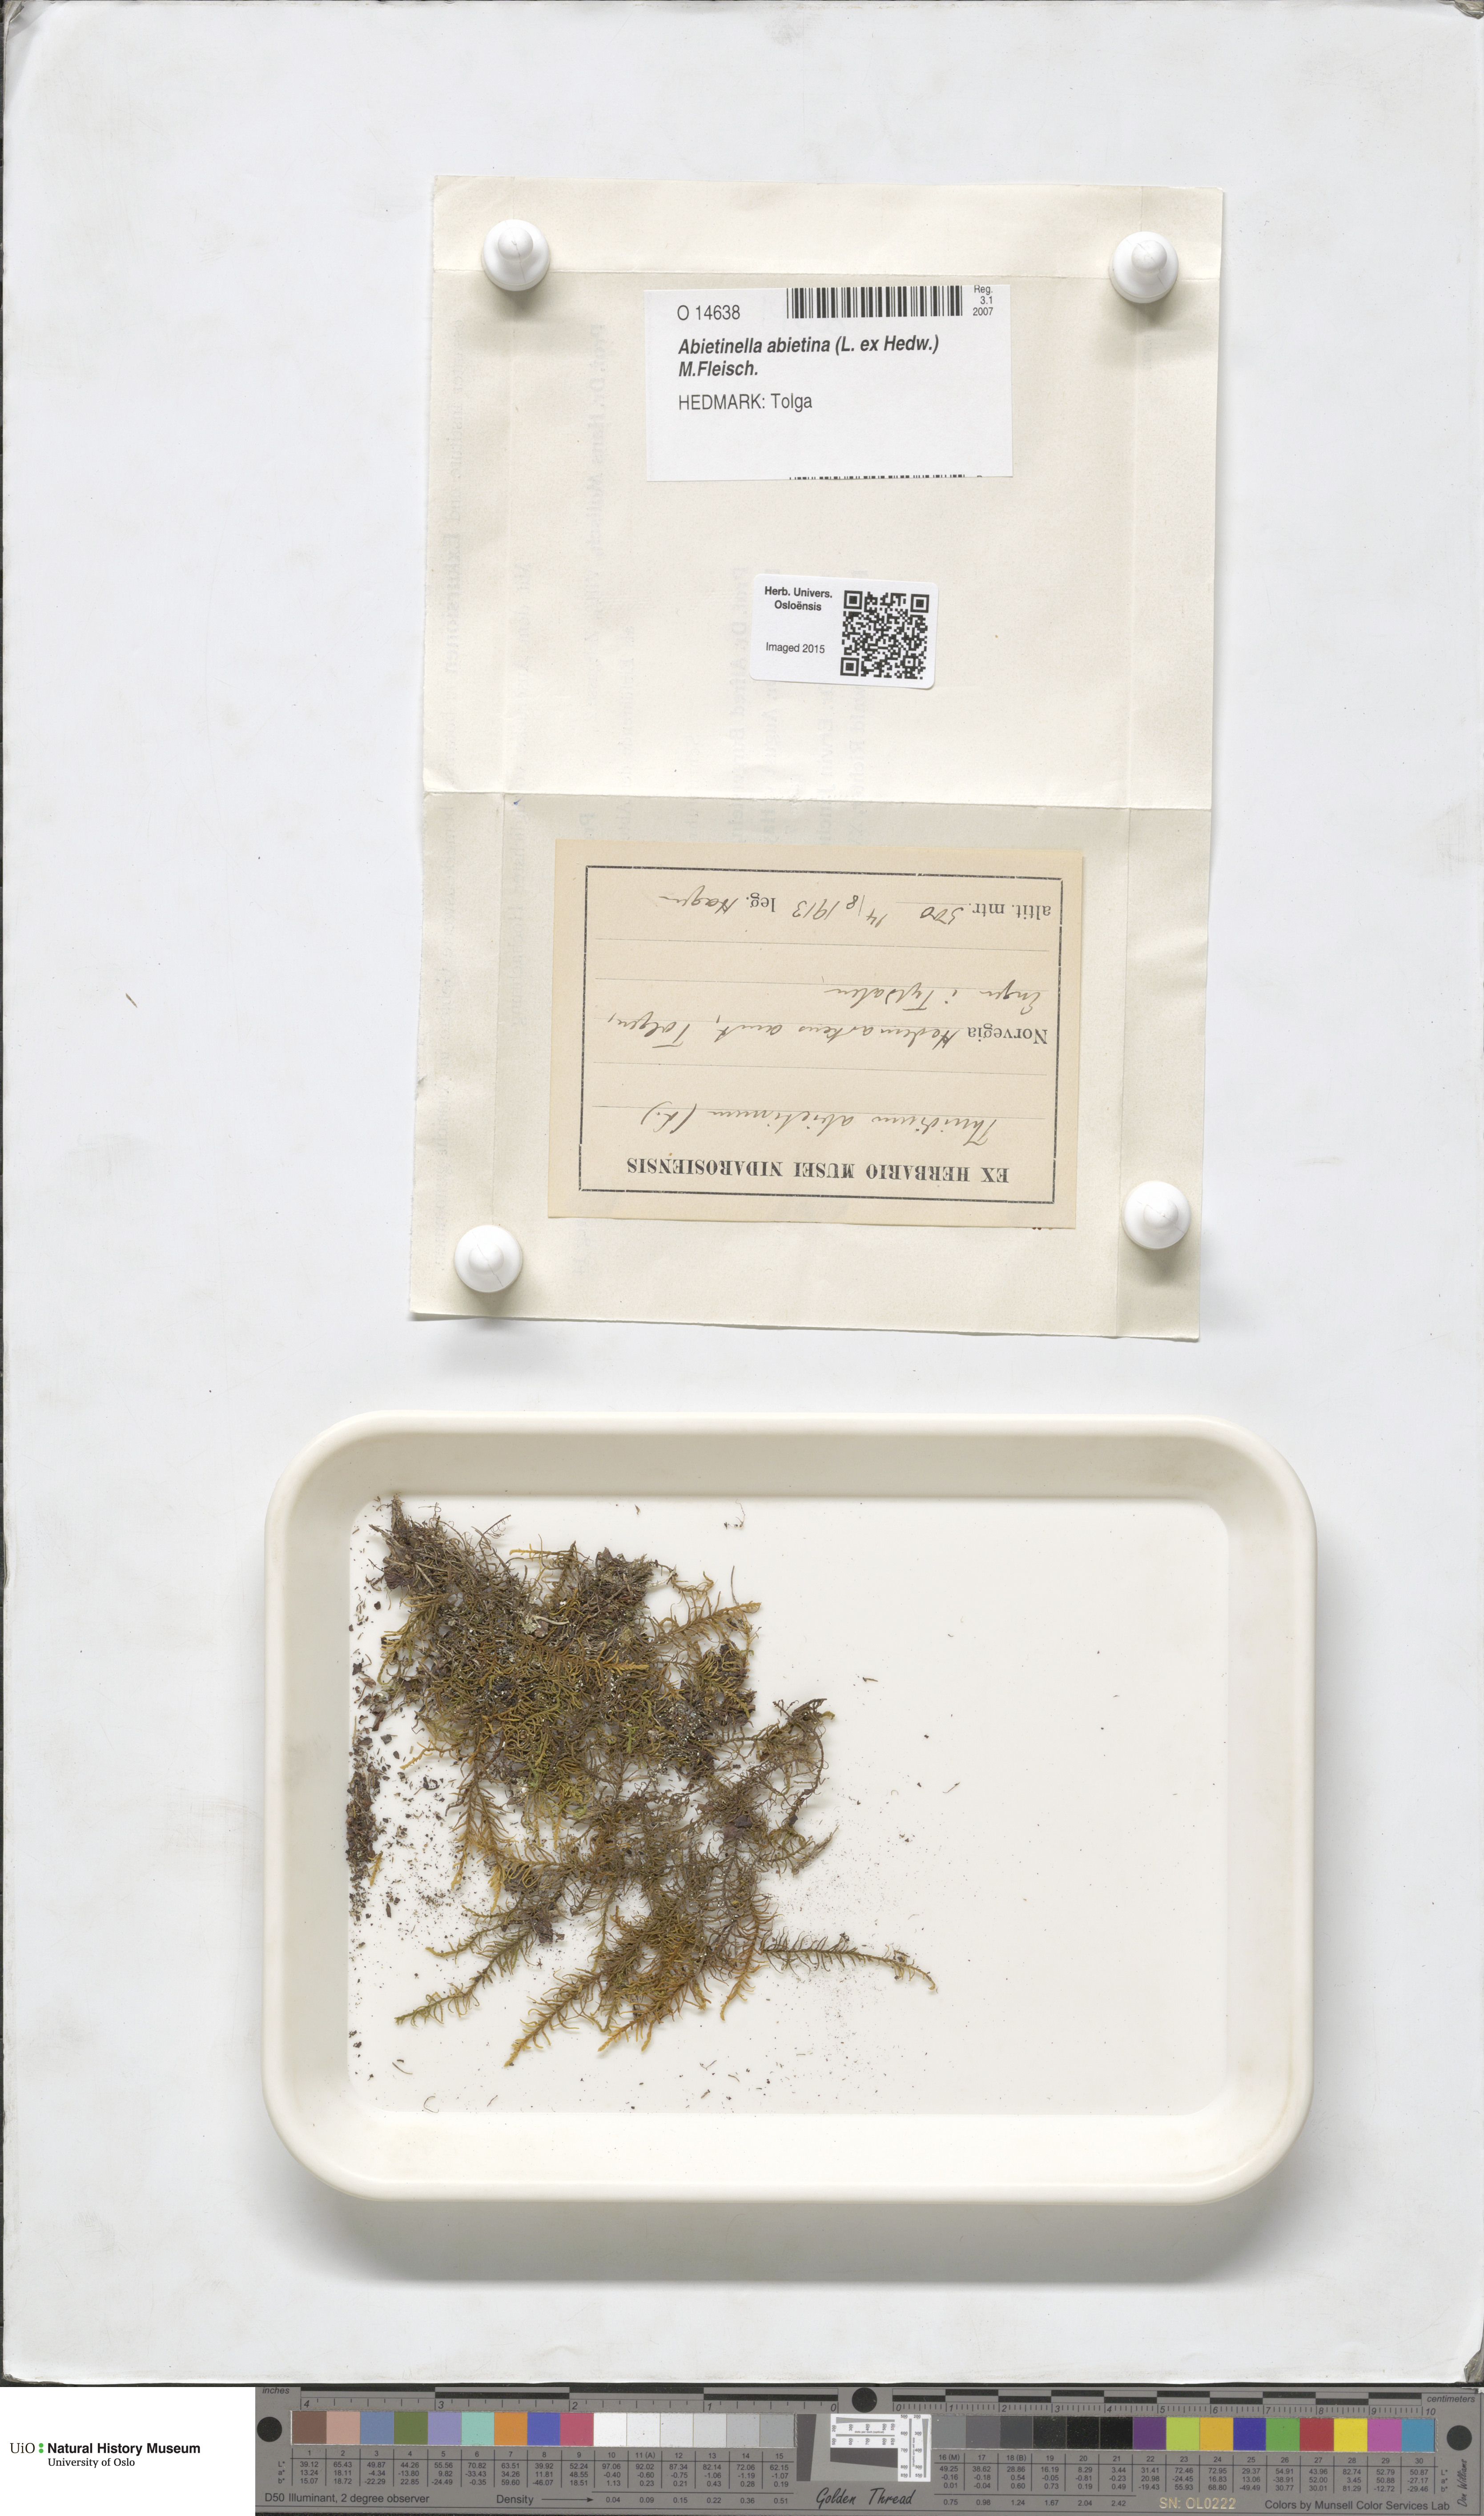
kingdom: Plantae
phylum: Bryophyta
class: Bryopsida
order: Hypnales
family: Thuidiaceae
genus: Abietinella
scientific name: Abietinella abietina
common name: Wiry fern moss
